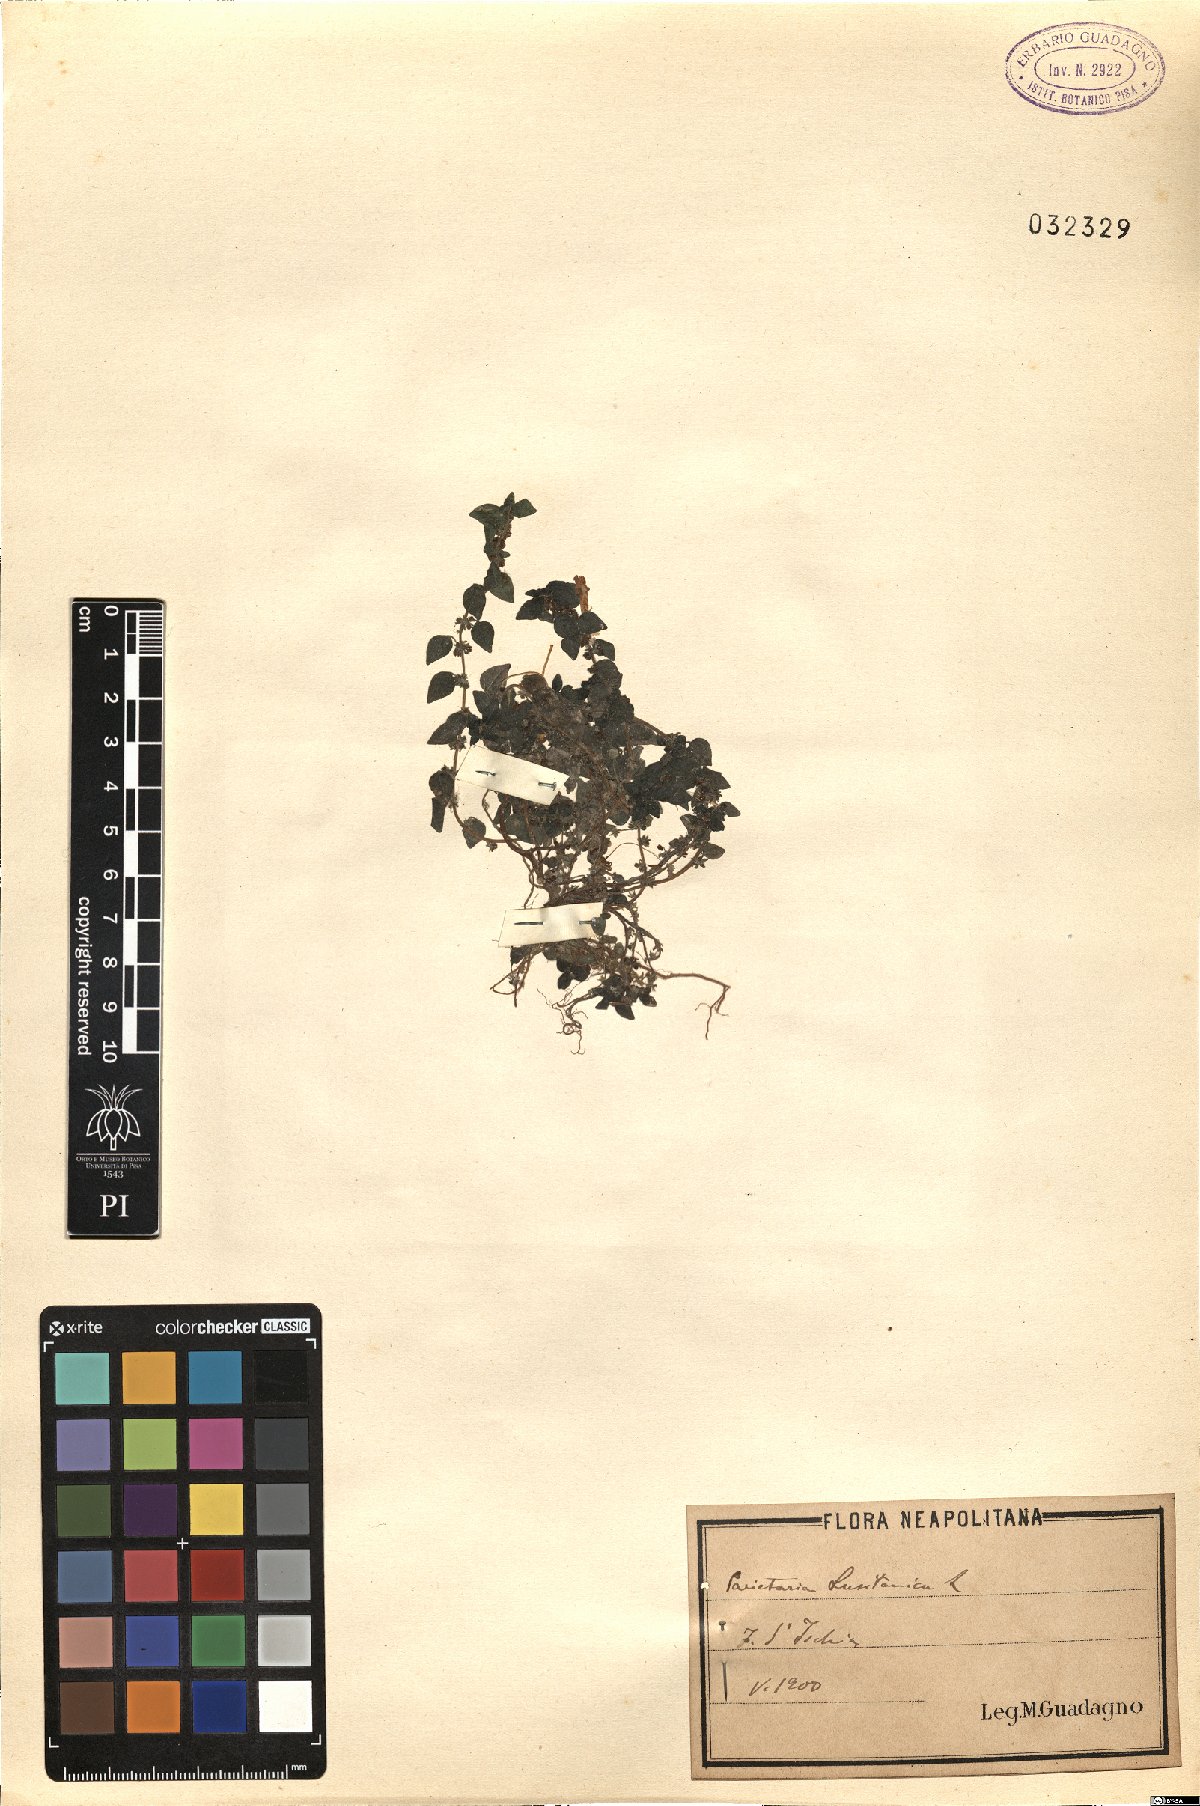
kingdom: Plantae
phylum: Tracheophyta
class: Magnoliopsida
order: Rosales
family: Urticaceae
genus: Parietaria
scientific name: Parietaria lusitanica
